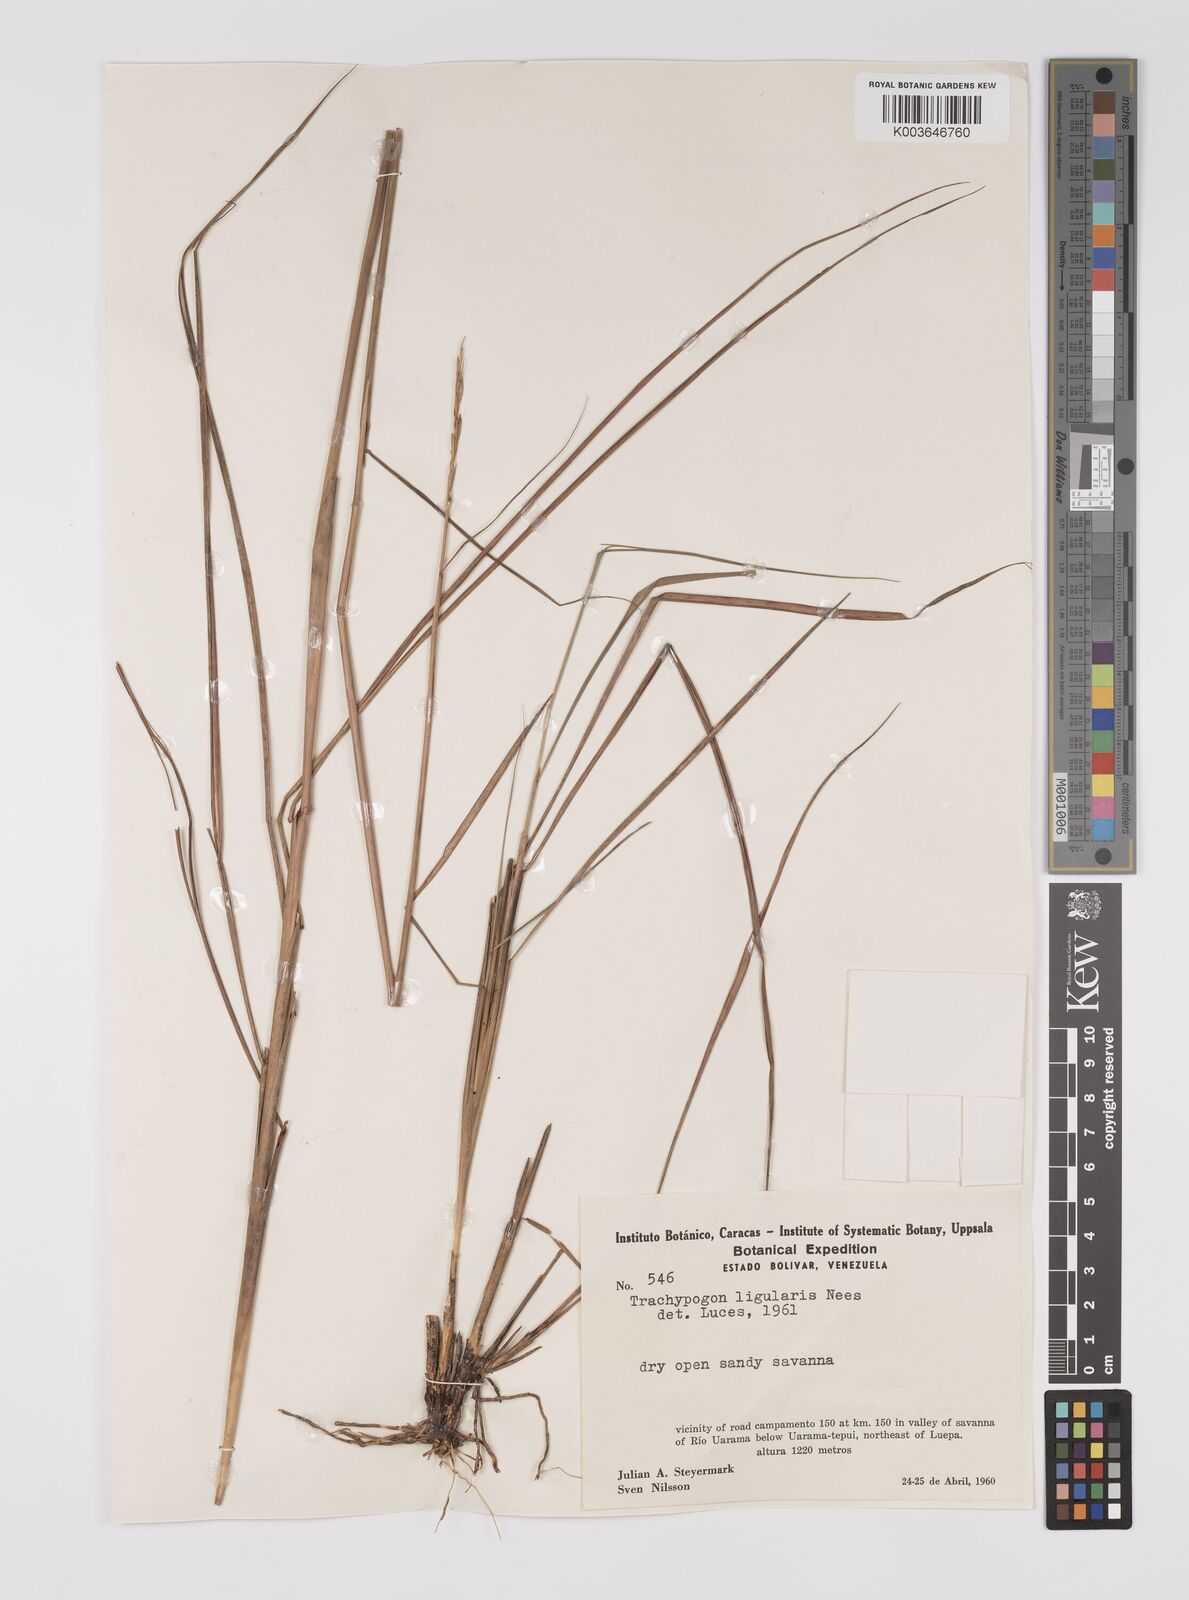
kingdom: Plantae
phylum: Tracheophyta
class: Liliopsida
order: Poales
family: Poaceae
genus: Trachypogon
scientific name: Trachypogon spicatus
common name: Crinkle-awn
